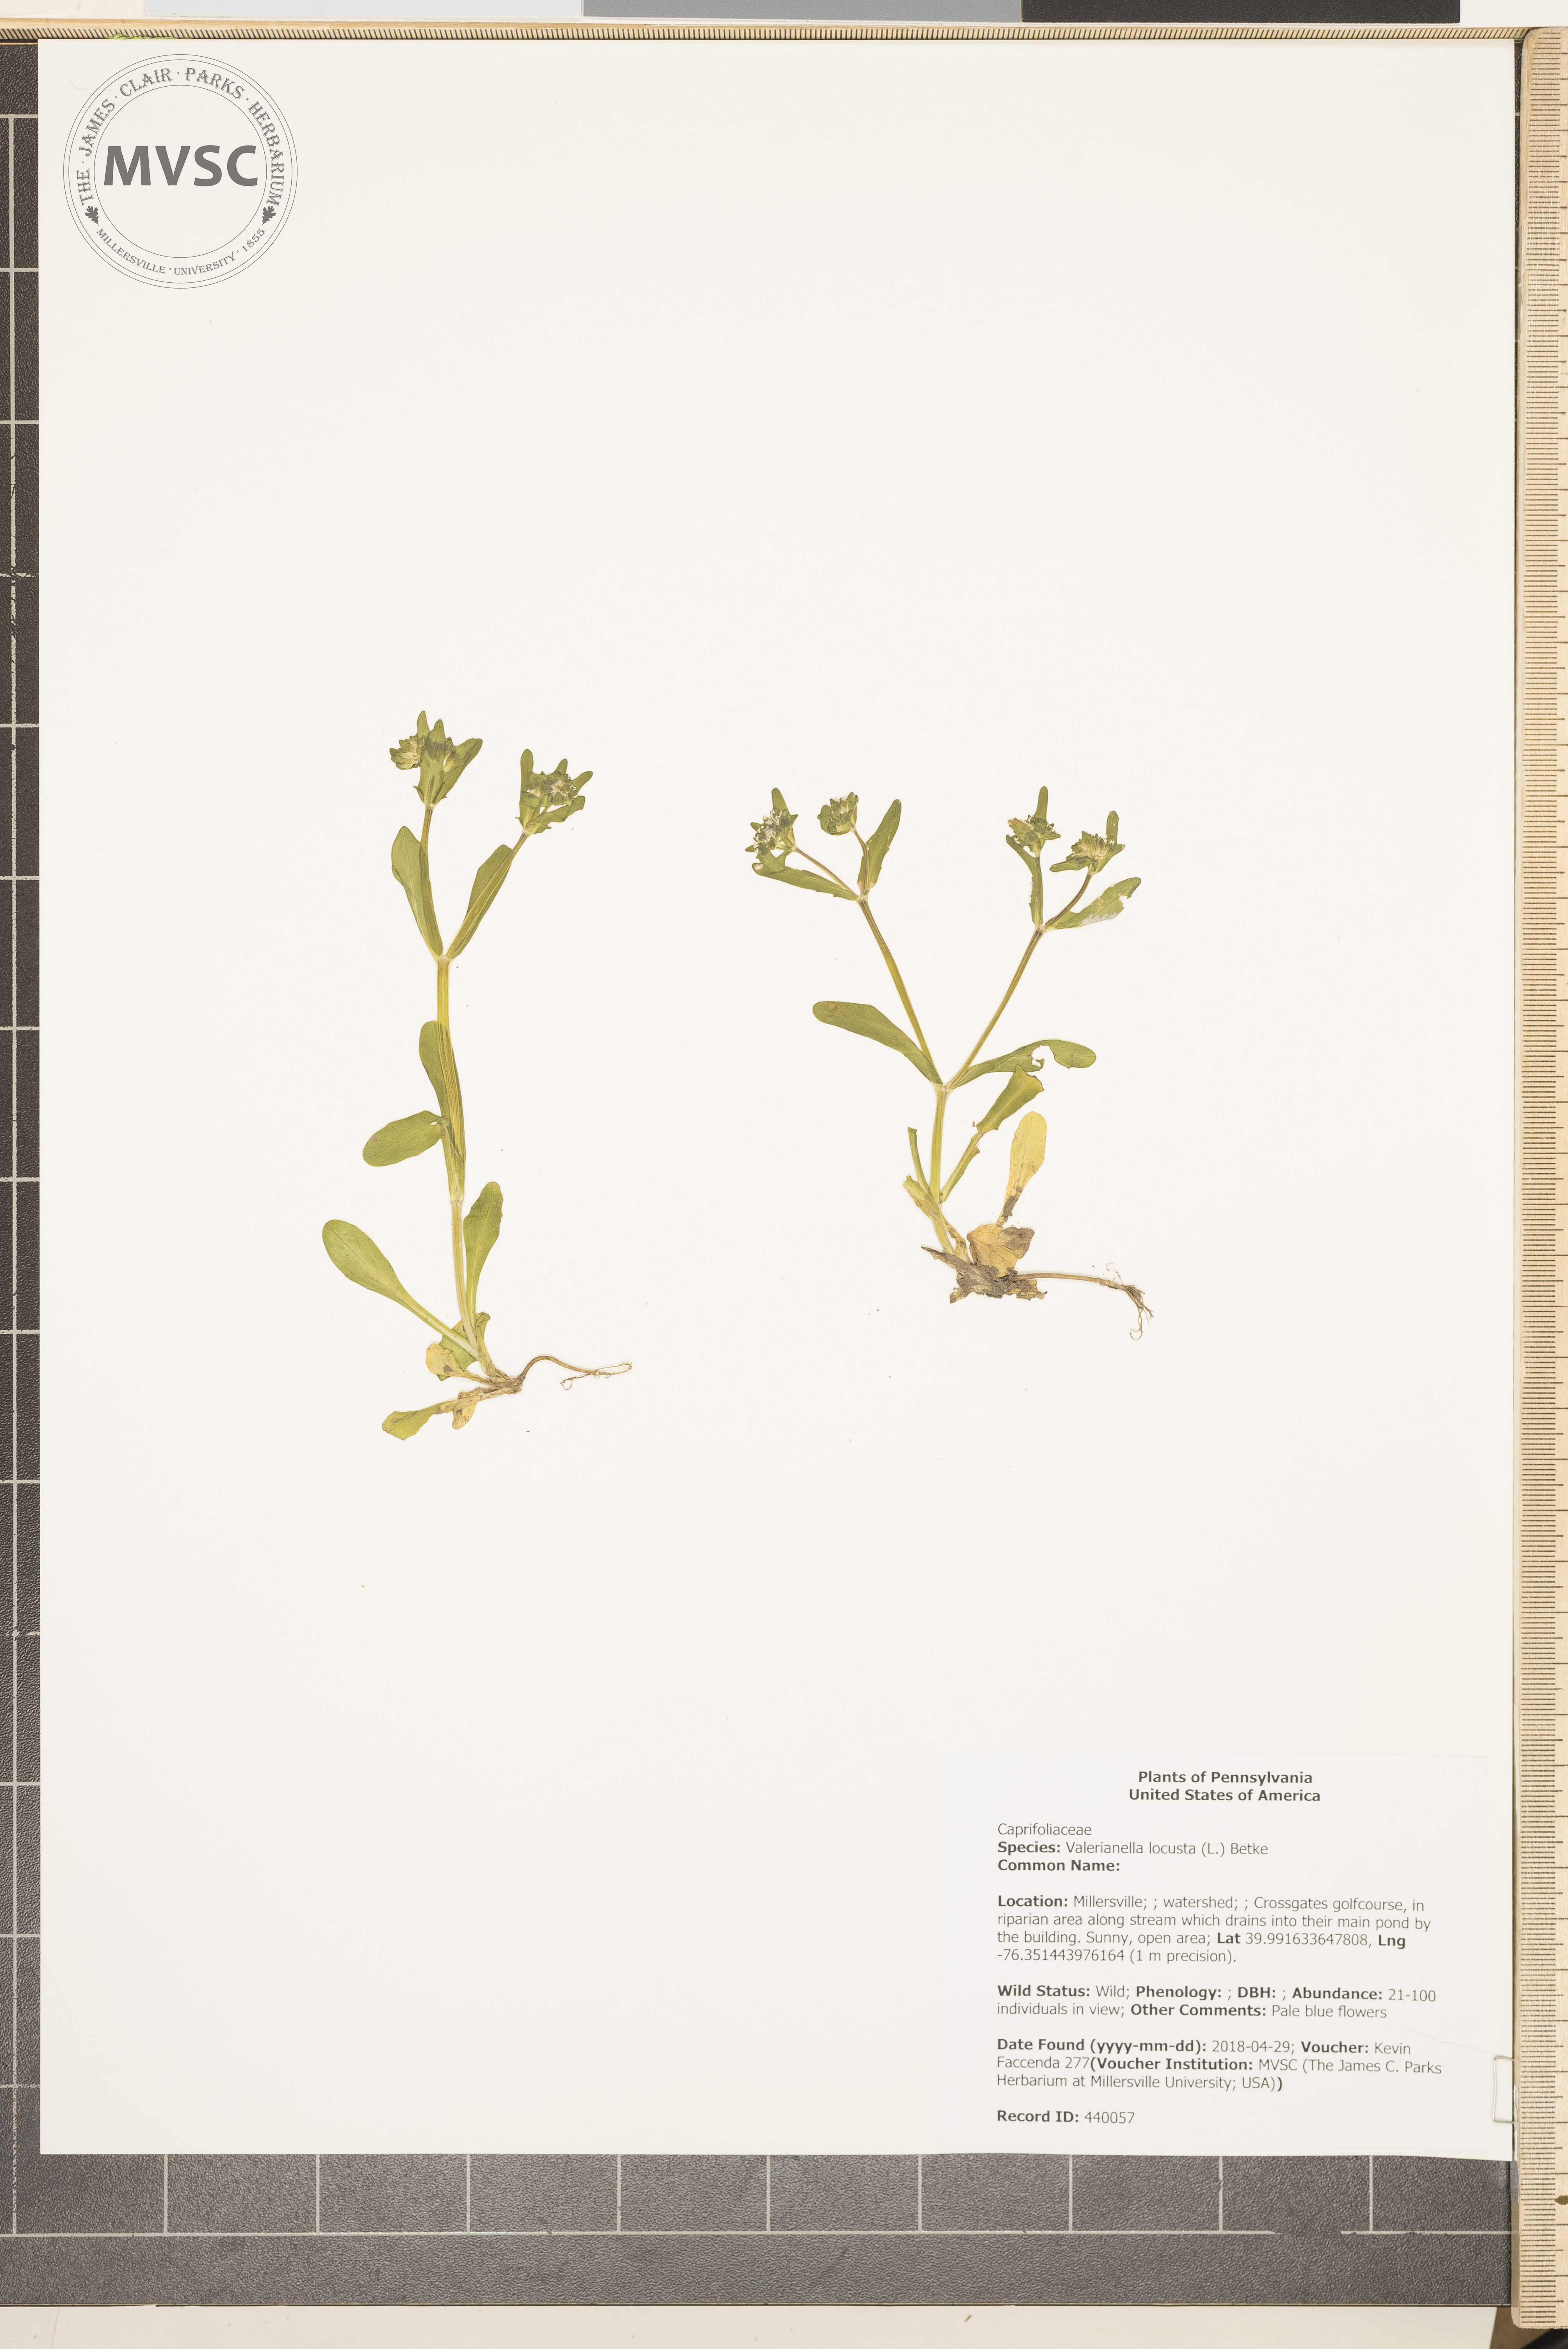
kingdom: Plantae
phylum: Tracheophyta
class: Magnoliopsida
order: Dipsacales
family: Caprifoliaceae
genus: Valerianella
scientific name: Valerianella locusta
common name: Common cornsalad
